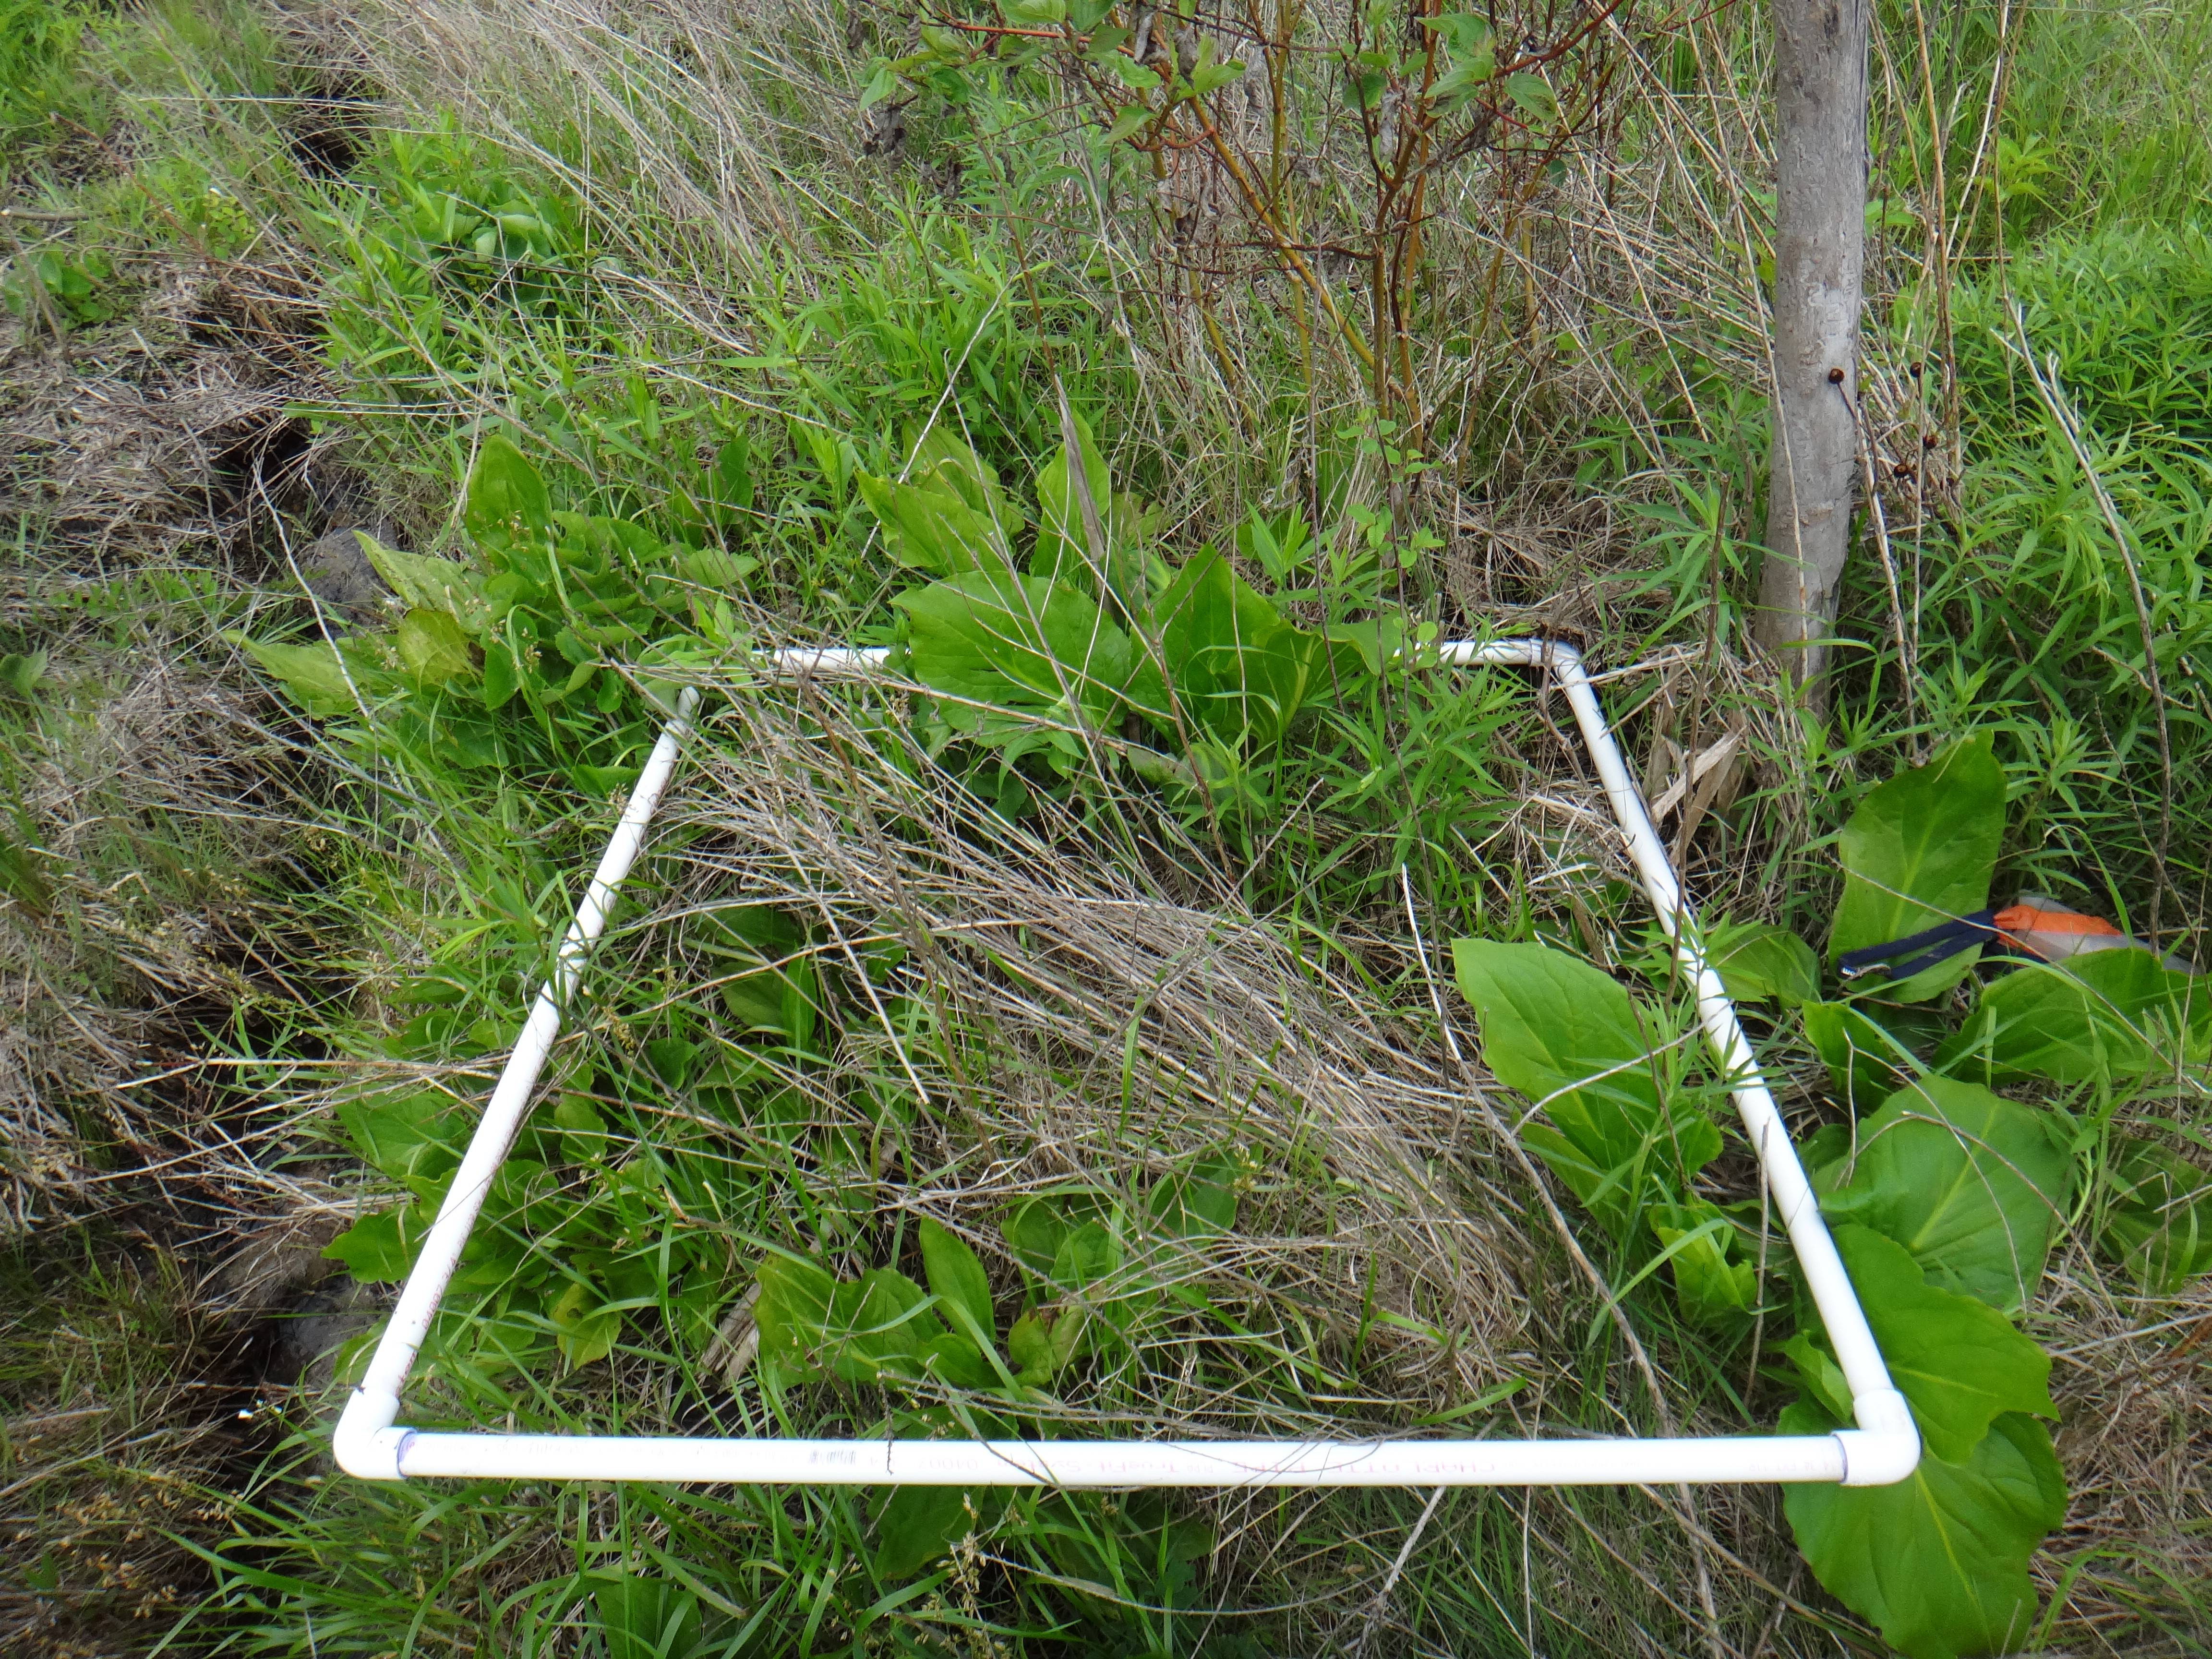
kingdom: Plantae
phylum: Tracheophyta
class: Magnoliopsida
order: Asterales
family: Asteraceae
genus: Symphyotrichum
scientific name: Symphyotrichum puniceum
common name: Bog aster
